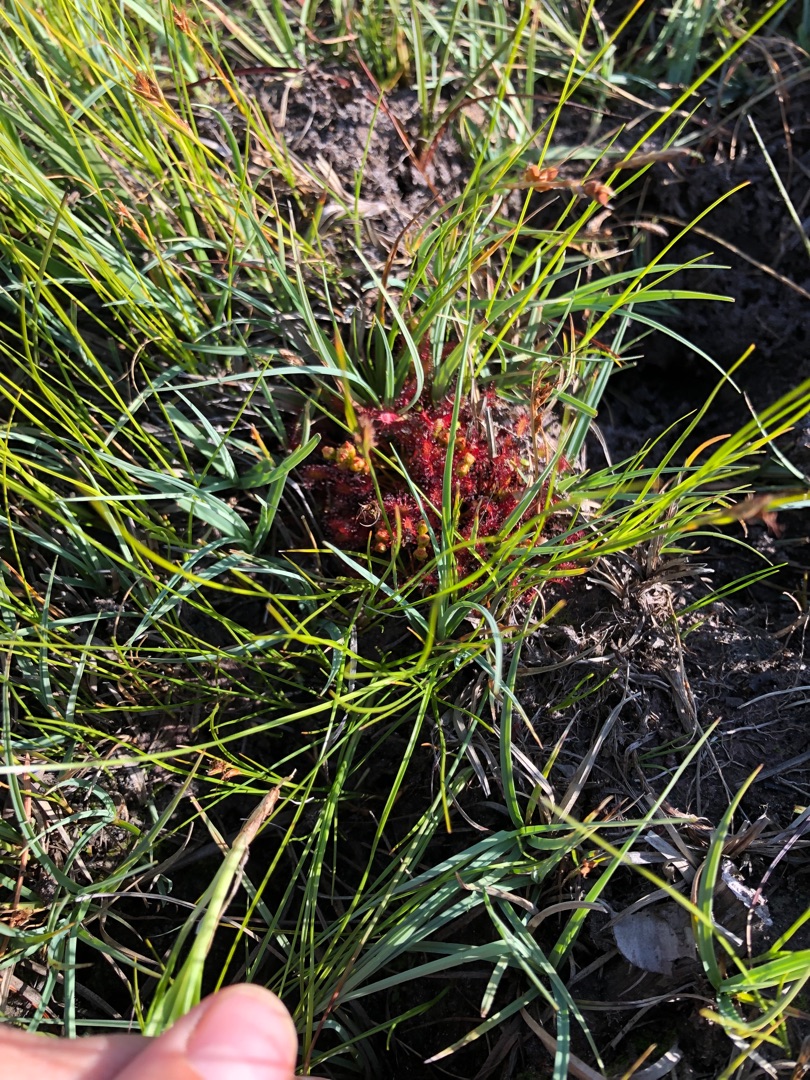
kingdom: Plantae
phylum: Tracheophyta
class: Magnoliopsida
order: Caryophyllales
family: Droseraceae
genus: Drosera
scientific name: Drosera intermedia
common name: Liden soldug
